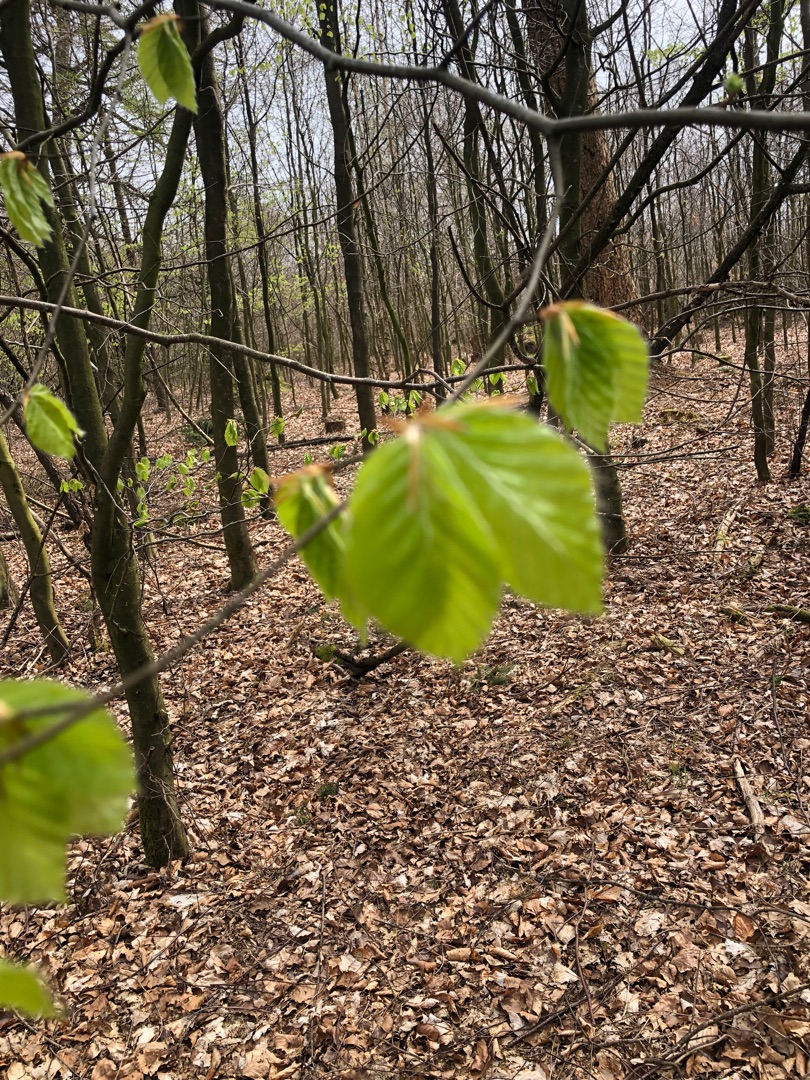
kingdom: Plantae
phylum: Tracheophyta
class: Magnoliopsida
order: Fagales
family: Fagaceae
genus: Fagus
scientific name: Fagus sylvatica
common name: Bøg
